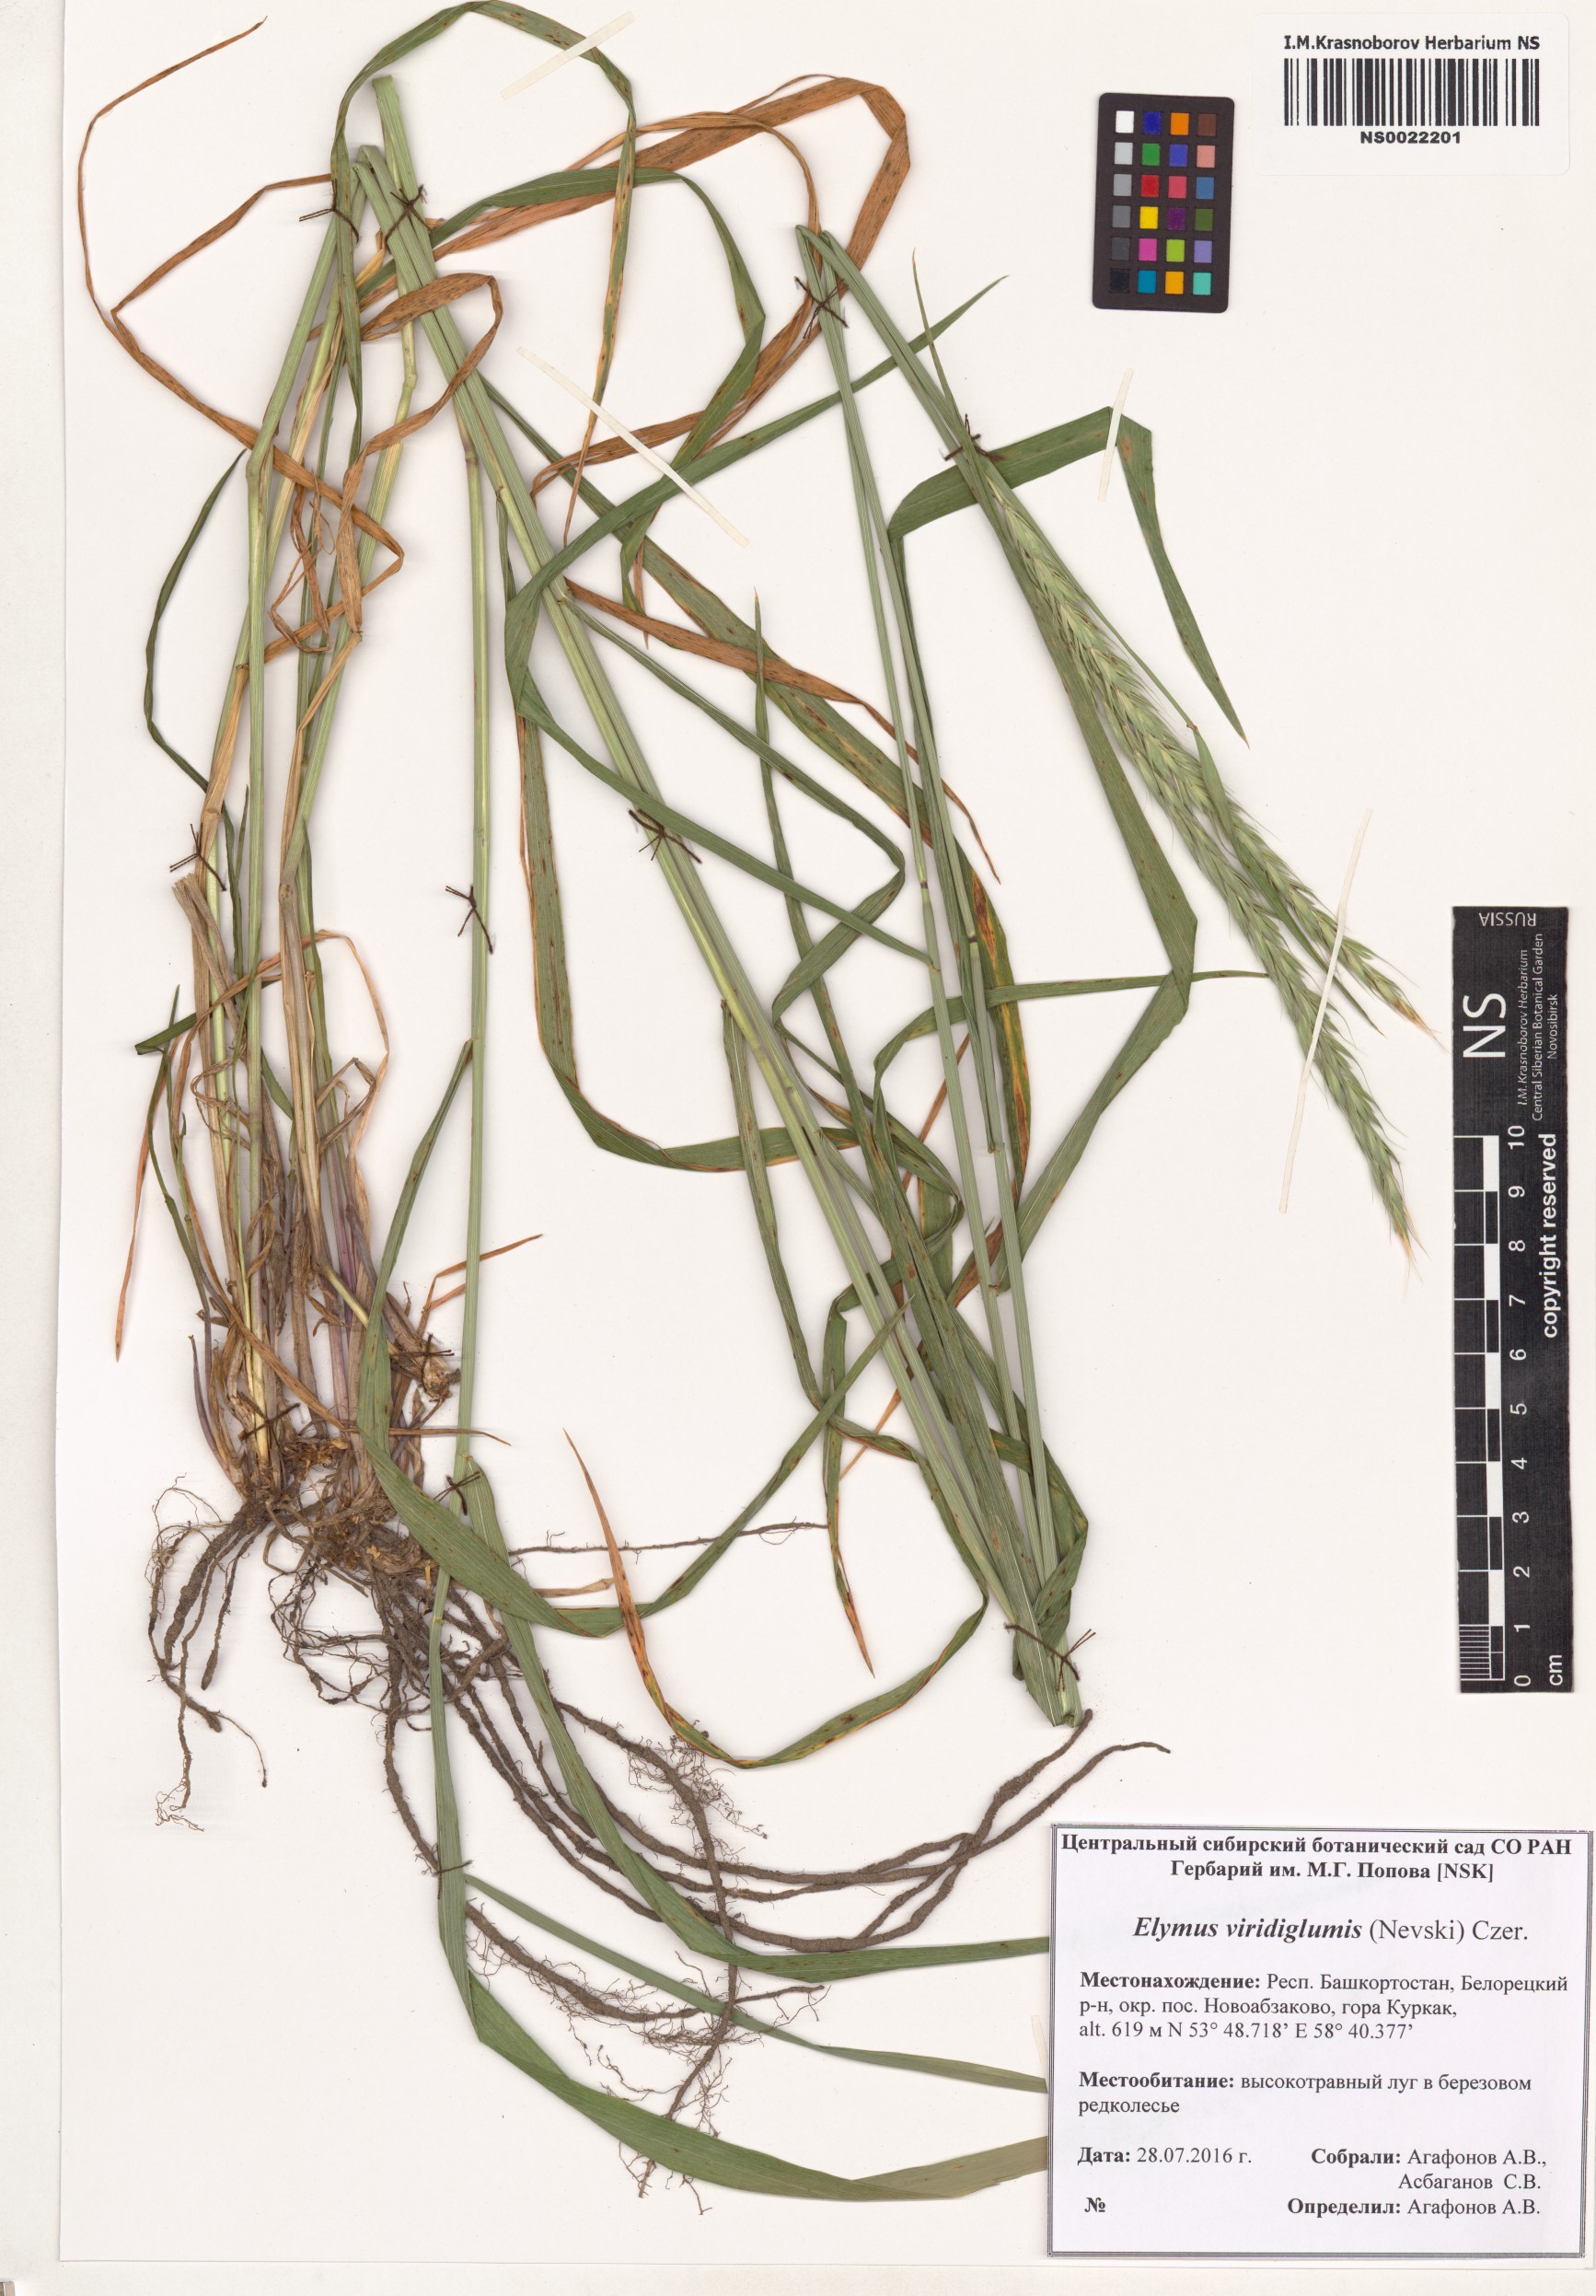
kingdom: Plantae
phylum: Tracheophyta
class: Liliopsida
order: Poales
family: Poaceae
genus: Elymus
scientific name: Elymus uralensis
